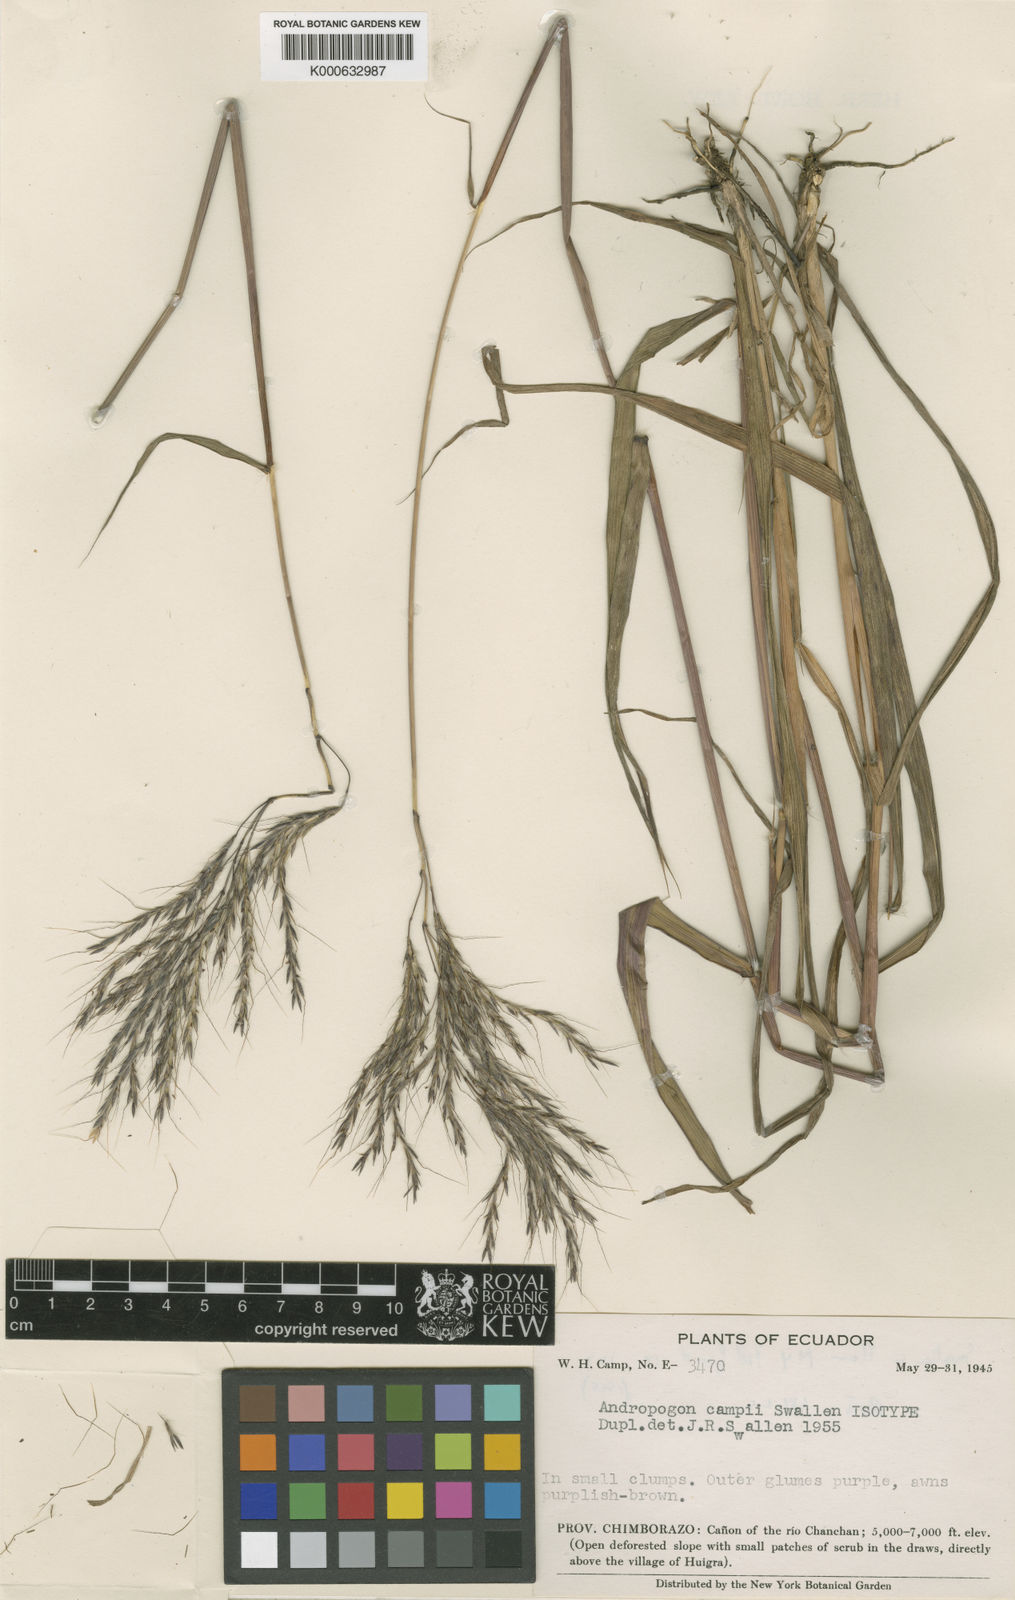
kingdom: Plantae
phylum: Tracheophyta
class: Liliopsida
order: Poales
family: Poaceae
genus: Bothriochloa
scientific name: Bothriochloa campii
